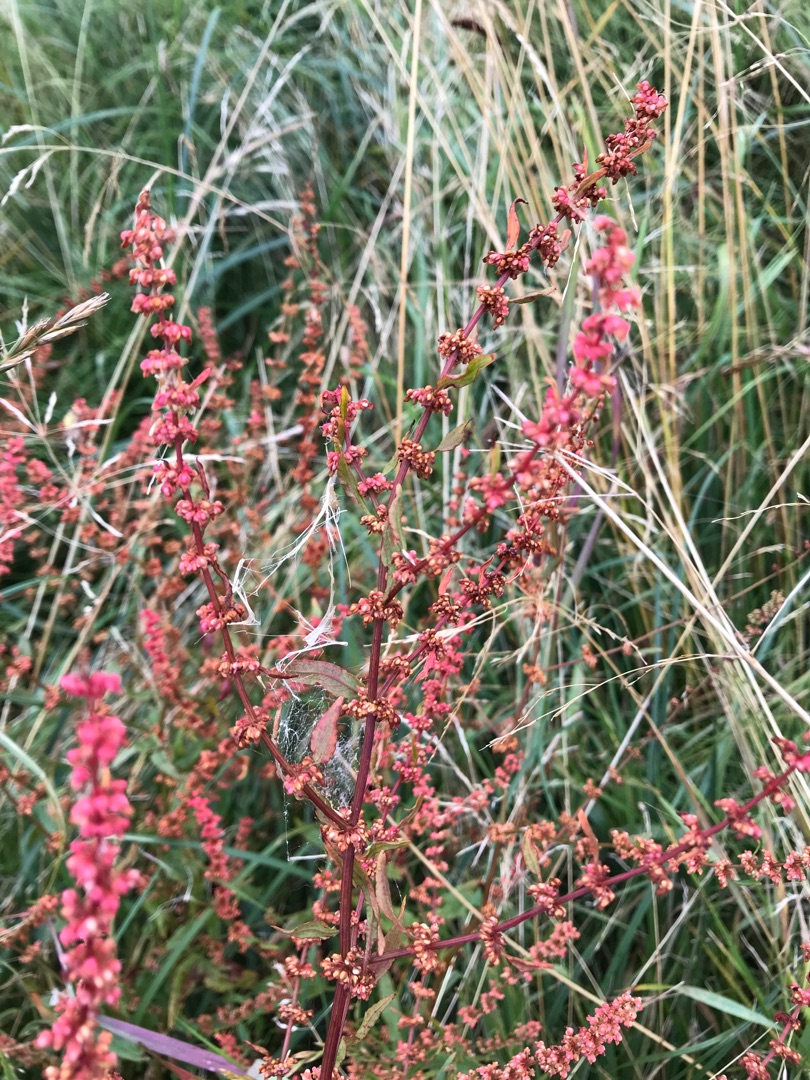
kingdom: Plantae
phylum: Tracheophyta
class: Magnoliopsida
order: Caryophyllales
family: Polygonaceae
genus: Rumex
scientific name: Rumex conglomeratus
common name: Nøgle-skræppe
